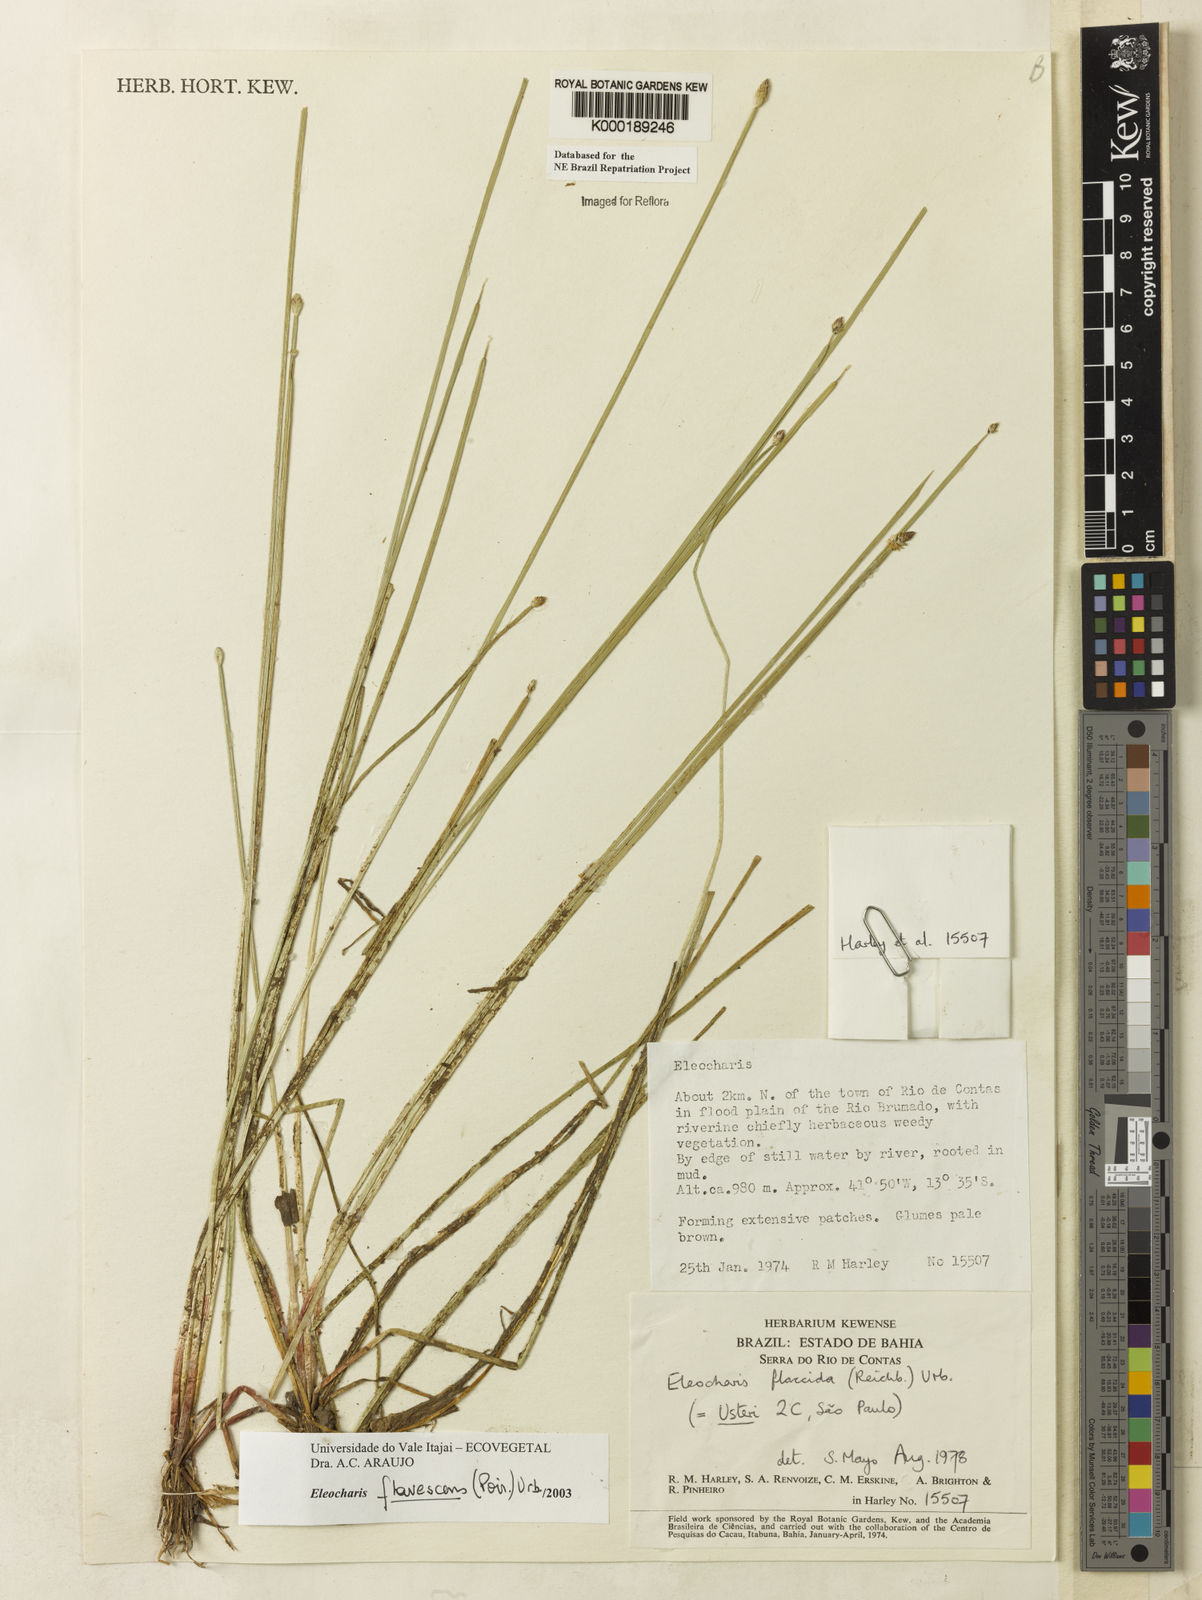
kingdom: Plantae
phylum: Tracheophyta
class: Liliopsida
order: Poales
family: Cyperaceae
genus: Eleocharis
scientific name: Eleocharis flavescens
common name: Yellow spikerush
